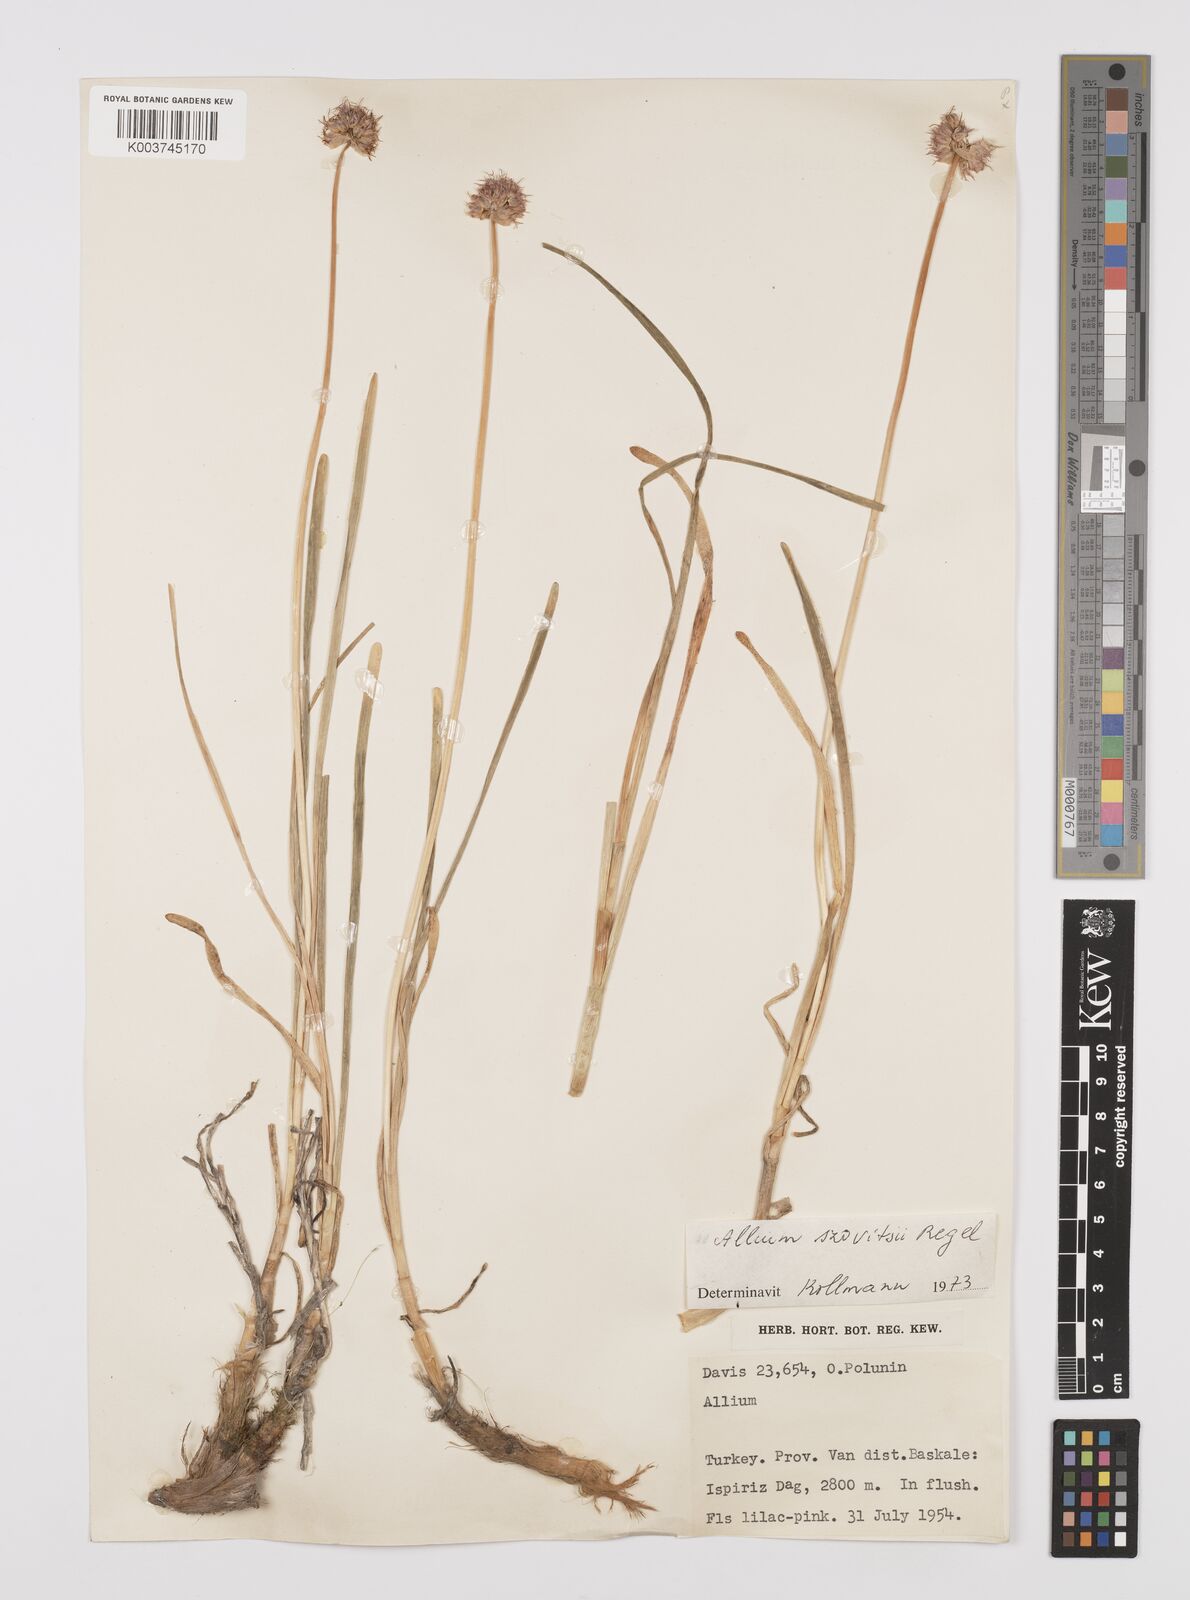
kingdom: Plantae
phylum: Tracheophyta
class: Liliopsida
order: Asparagales
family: Amaryllidaceae
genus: Allium
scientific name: Allium szovitsii
